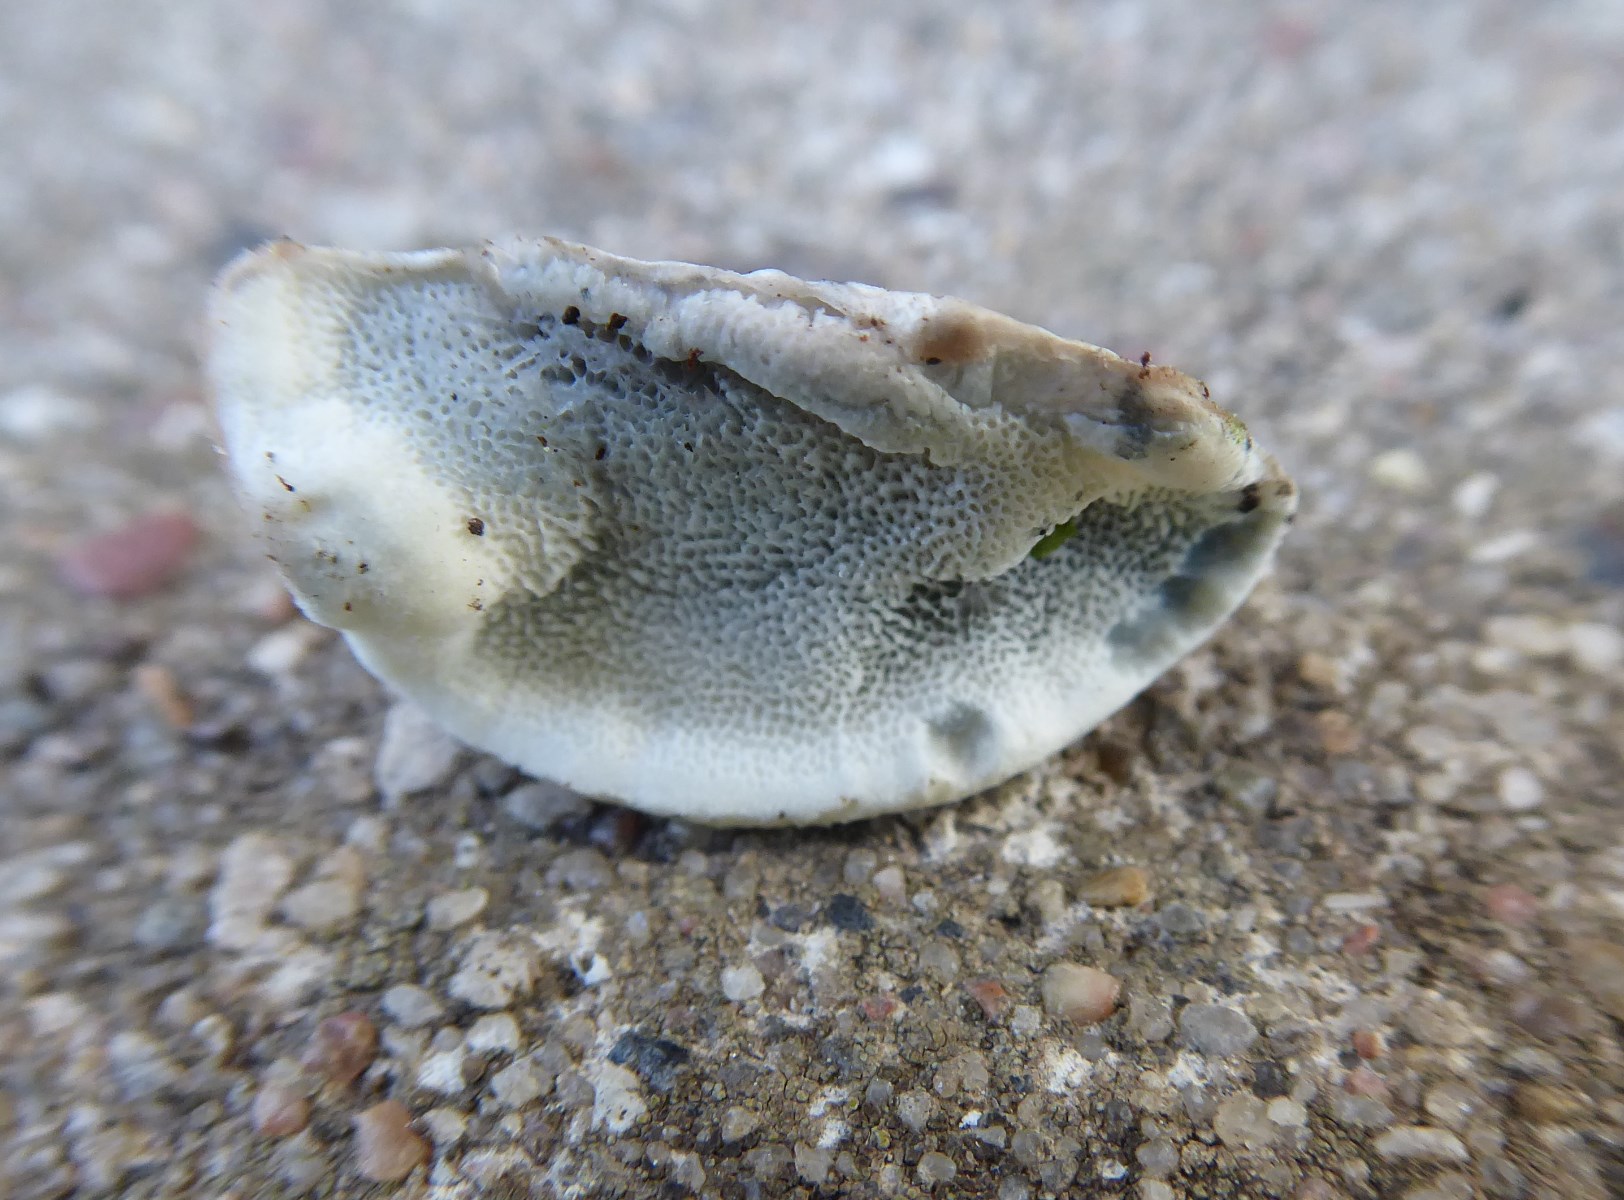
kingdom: Fungi
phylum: Basidiomycota
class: Agaricomycetes
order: Polyporales
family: Polyporaceae
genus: Cyanosporus
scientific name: Cyanosporus caesius
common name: blålig kødporesvamp
